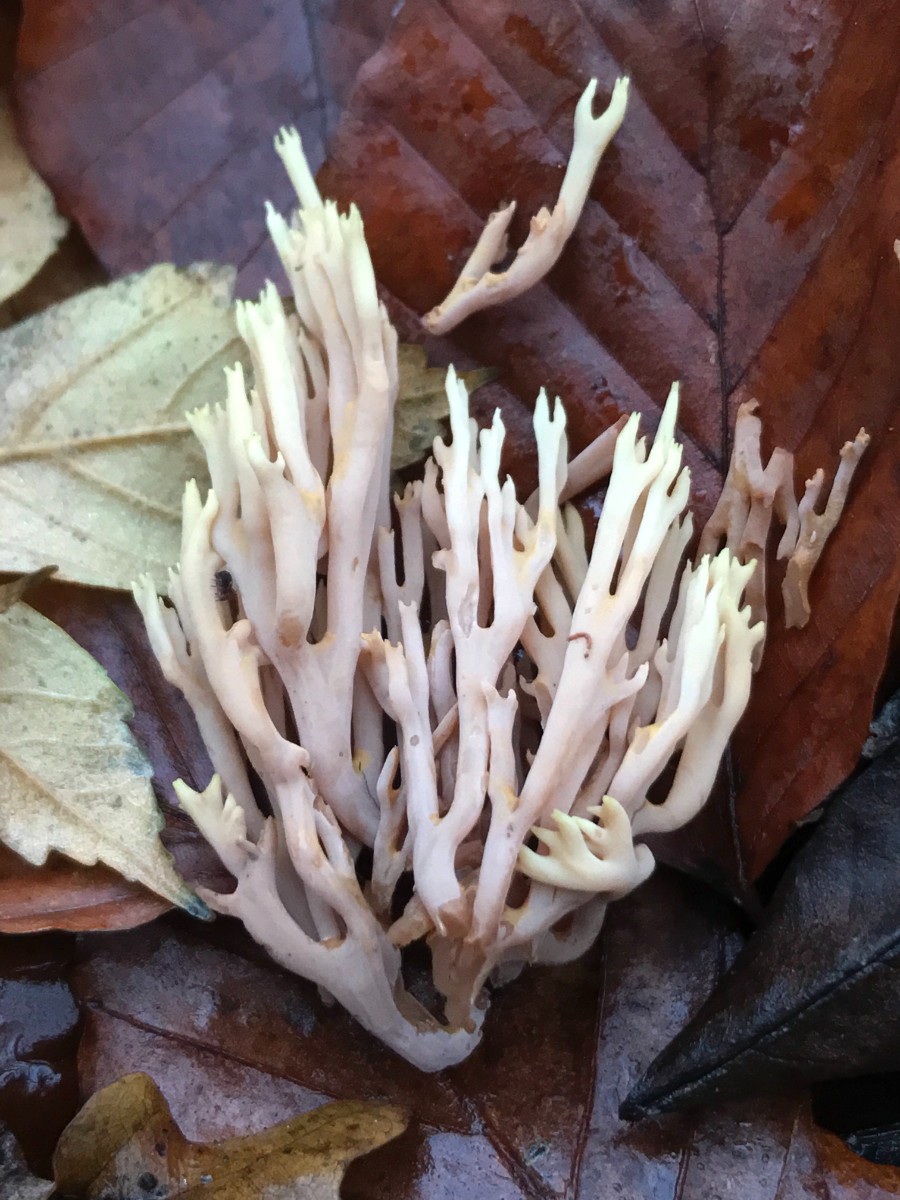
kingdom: Fungi
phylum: Basidiomycota
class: Agaricomycetes
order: Gomphales
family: Gomphaceae
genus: Ramaria
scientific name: Ramaria stricta
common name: rank koralsvamp
